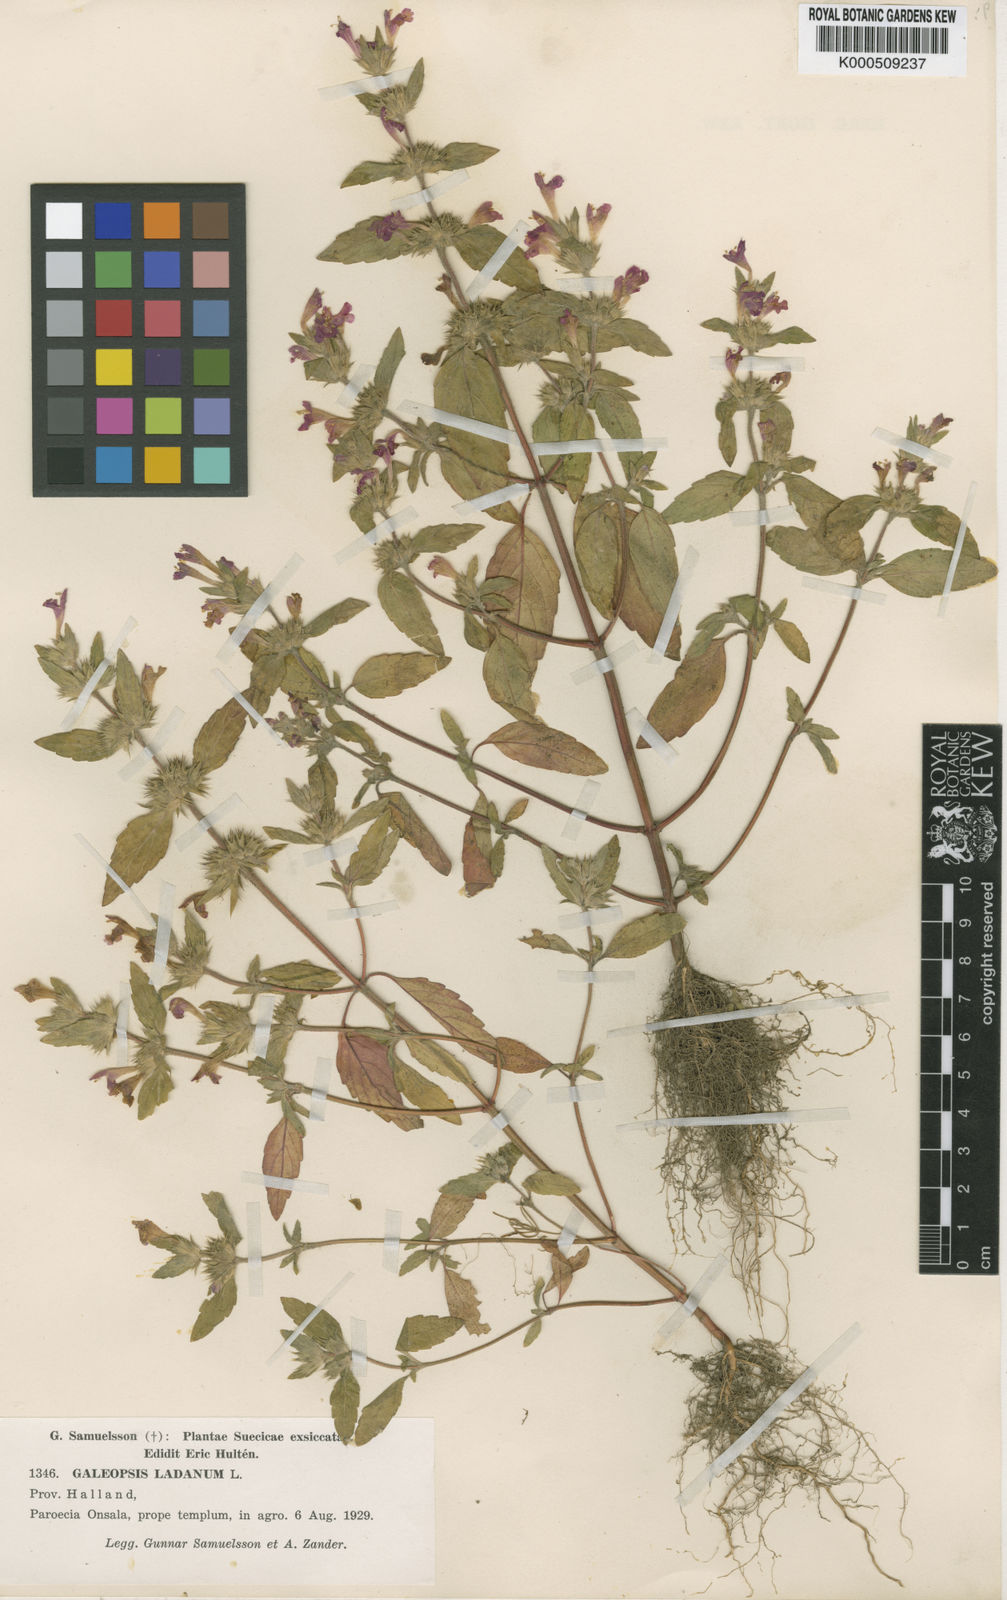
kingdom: Plantae
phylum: Tracheophyta
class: Magnoliopsida
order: Lamiales
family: Lamiaceae
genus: Galeopsis
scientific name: Galeopsis ladanum
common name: Broad-leaved hemp-nettle
